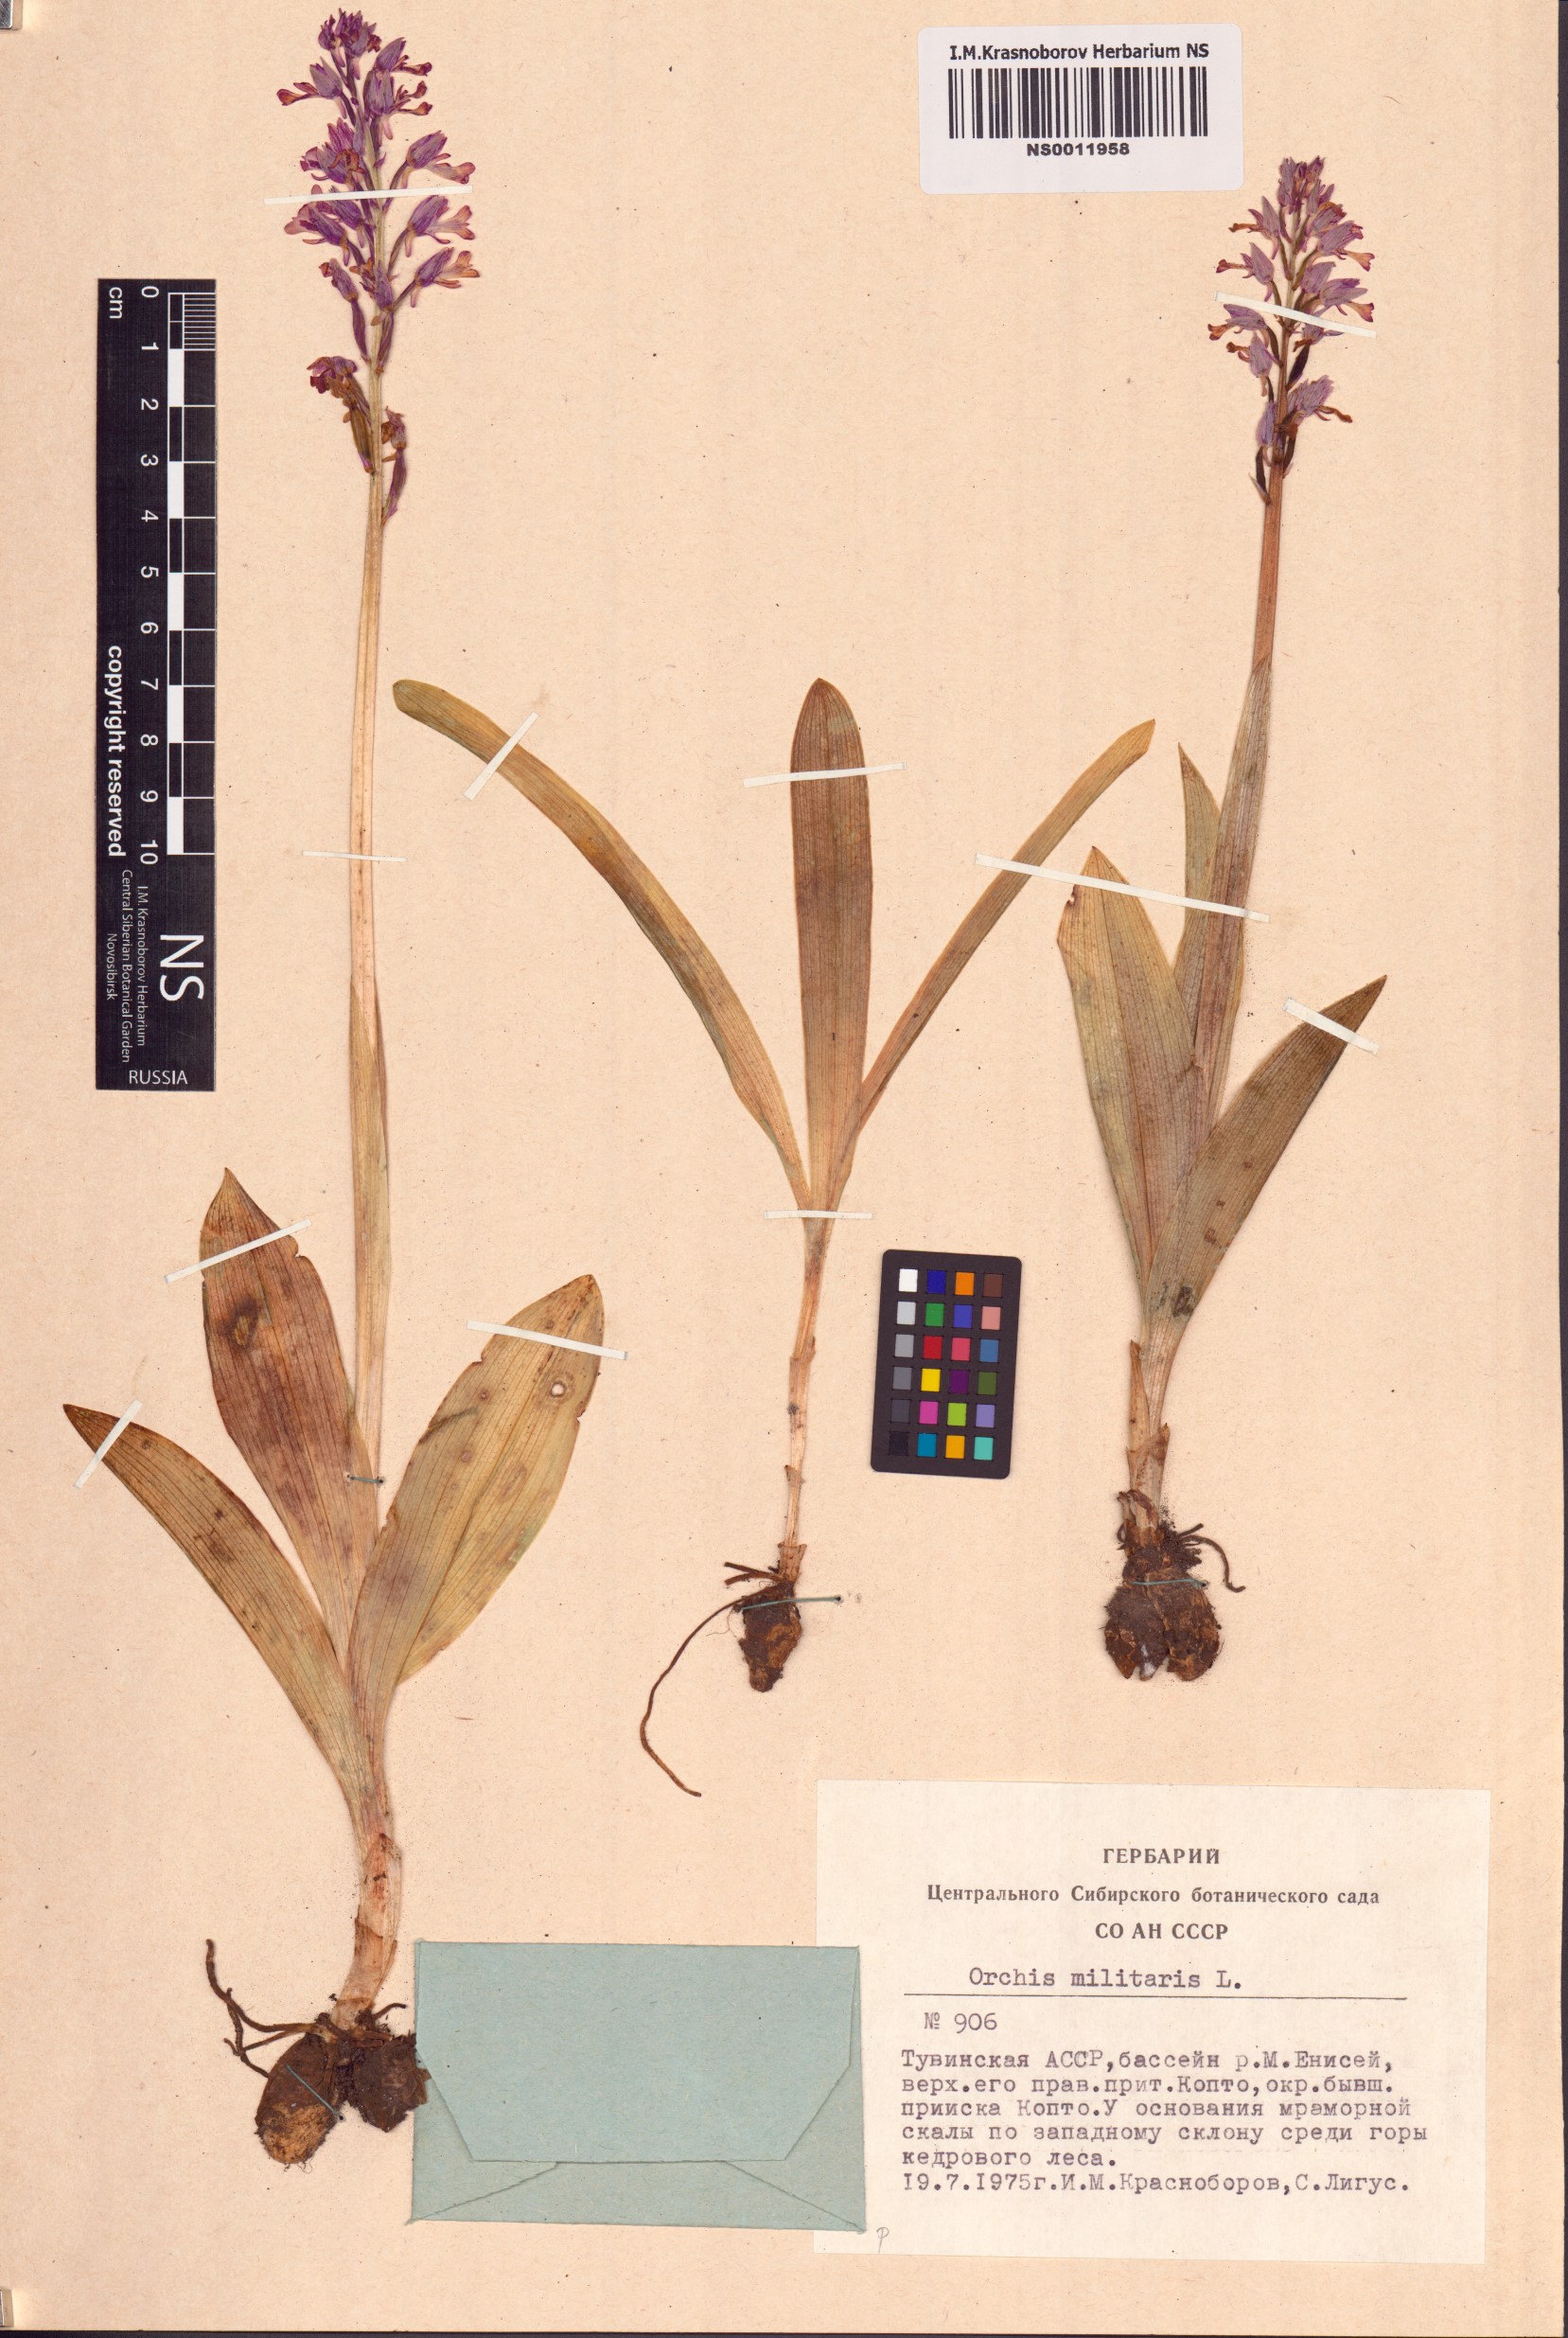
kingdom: Plantae
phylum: Tracheophyta
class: Liliopsida
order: Asparagales
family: Orchidaceae
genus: Orchis
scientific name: Orchis militaris
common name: Military orchid
